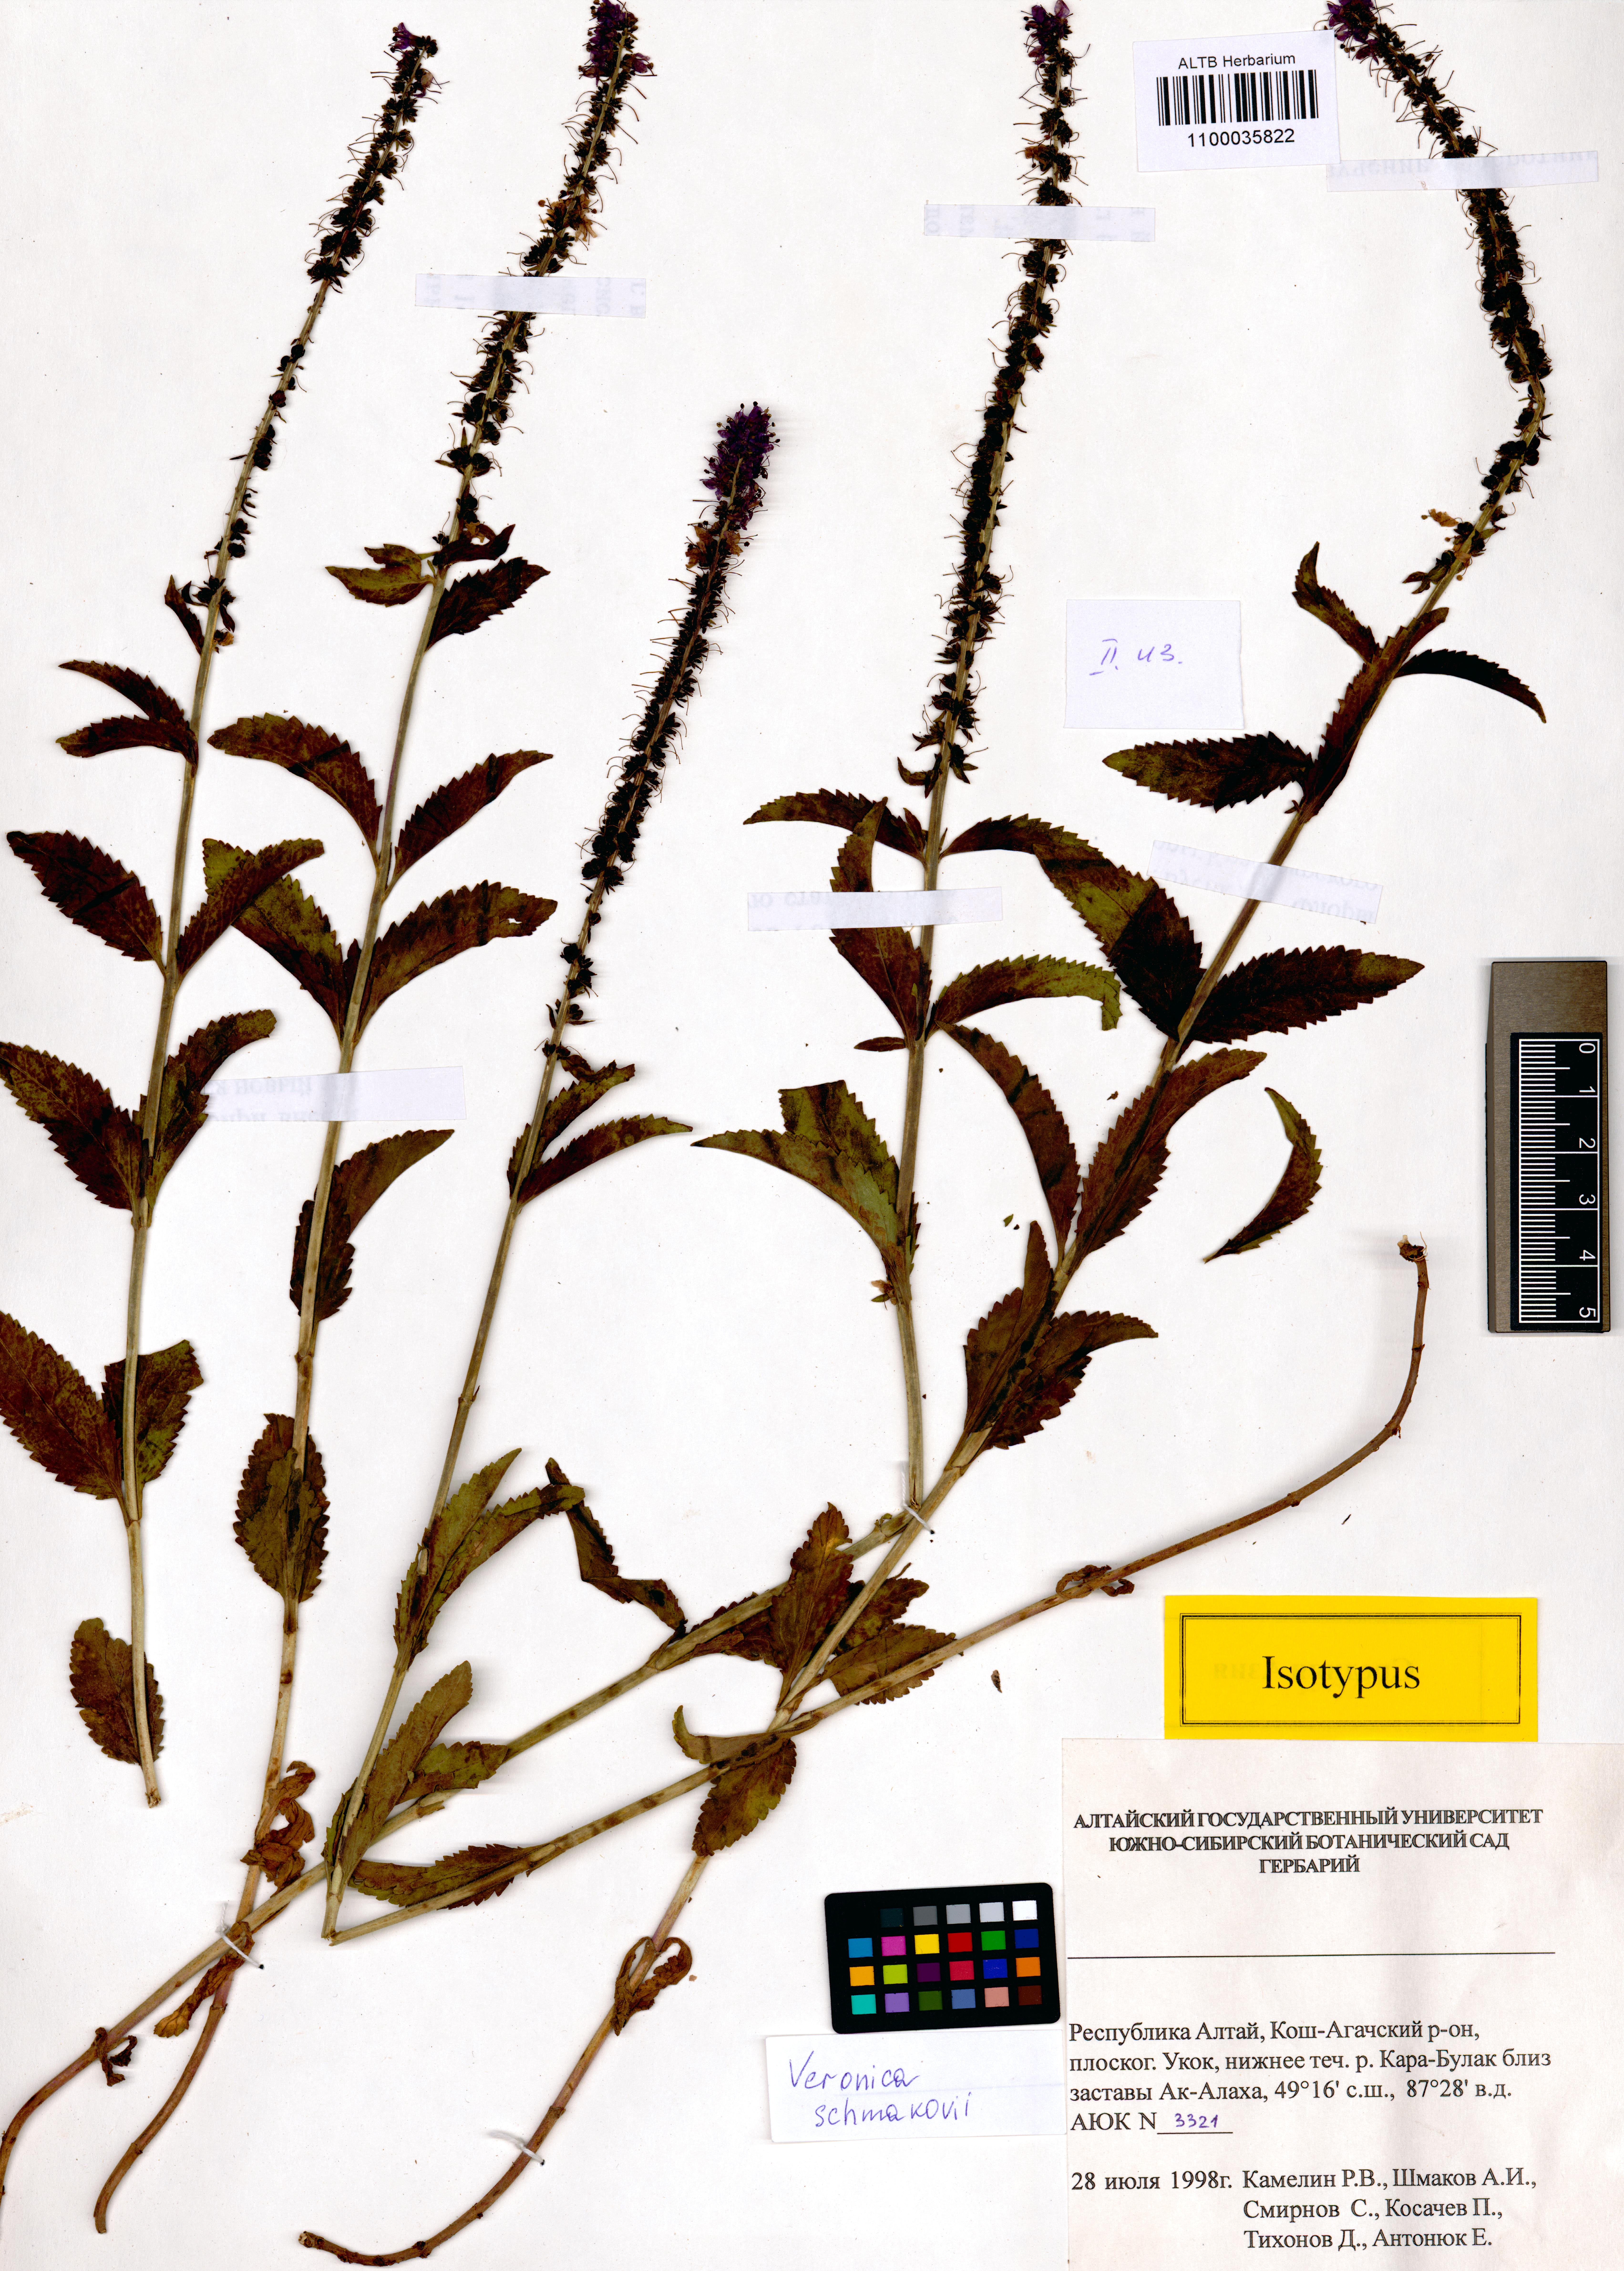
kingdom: Plantae
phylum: Tracheophyta
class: Magnoliopsida
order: Lamiales
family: Plantaginaceae
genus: Veronica
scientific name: Veronica schmakovii
